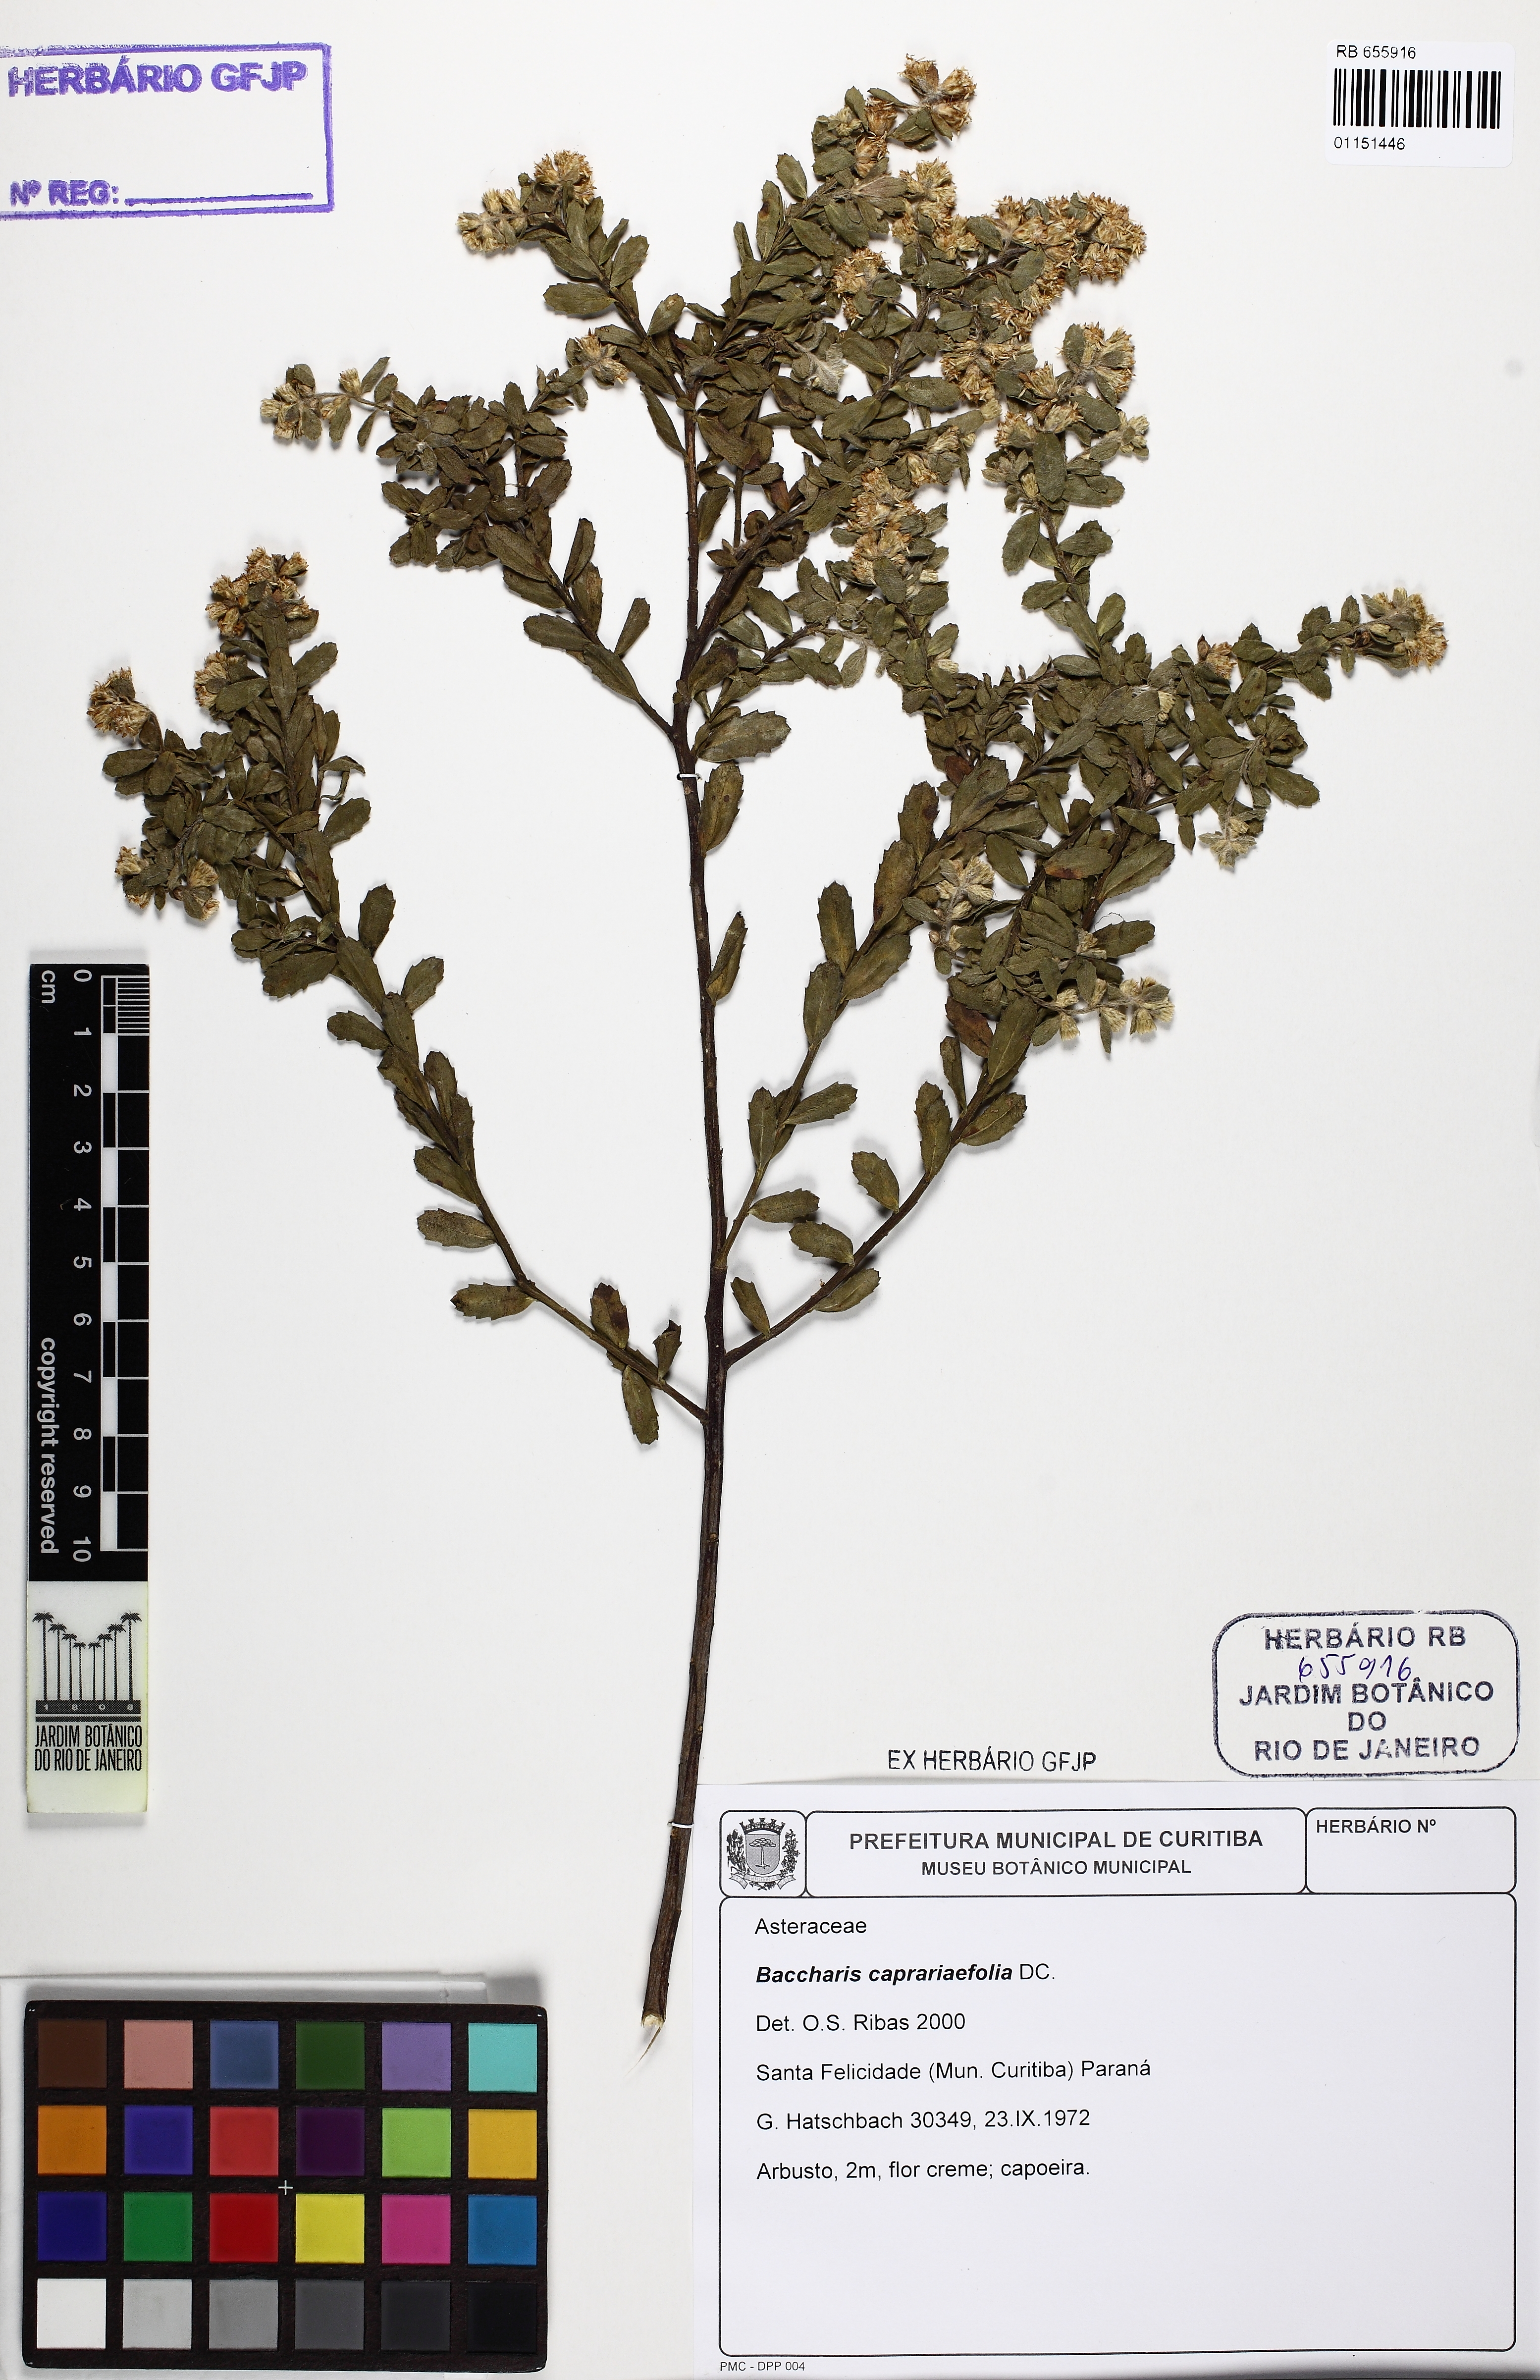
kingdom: Plantae
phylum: Tracheophyta
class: Magnoliopsida
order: Asterales
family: Asteraceae
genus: Baccharis
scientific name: Baccharis caprariifolia
